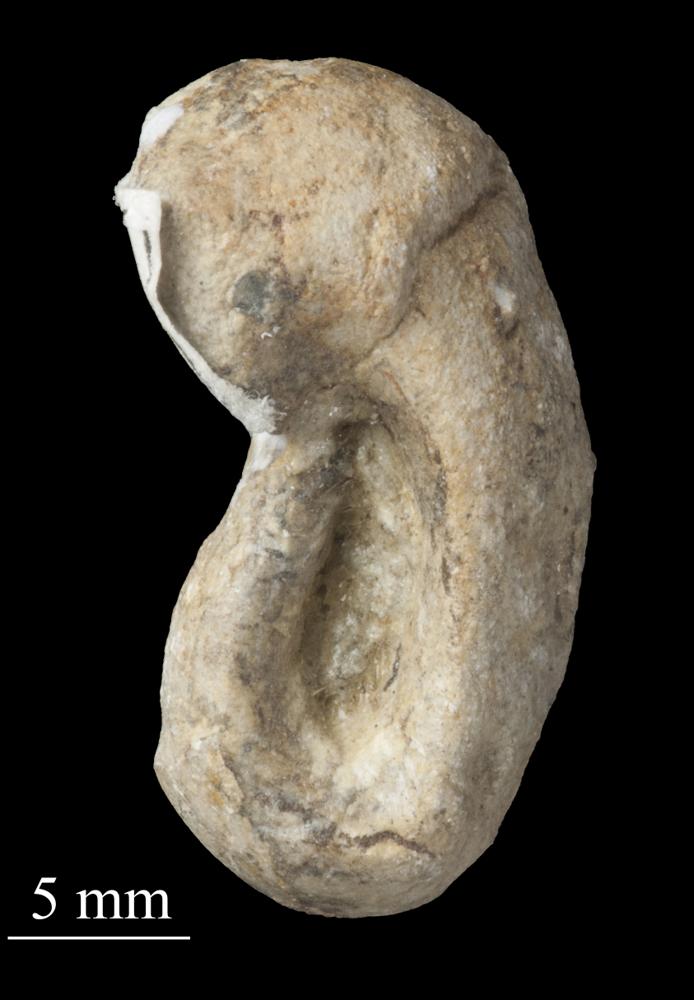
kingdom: Animalia
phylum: Mollusca
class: Gastropoda
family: Bellerophontidae
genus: Bellerophon
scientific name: Bellerophon
